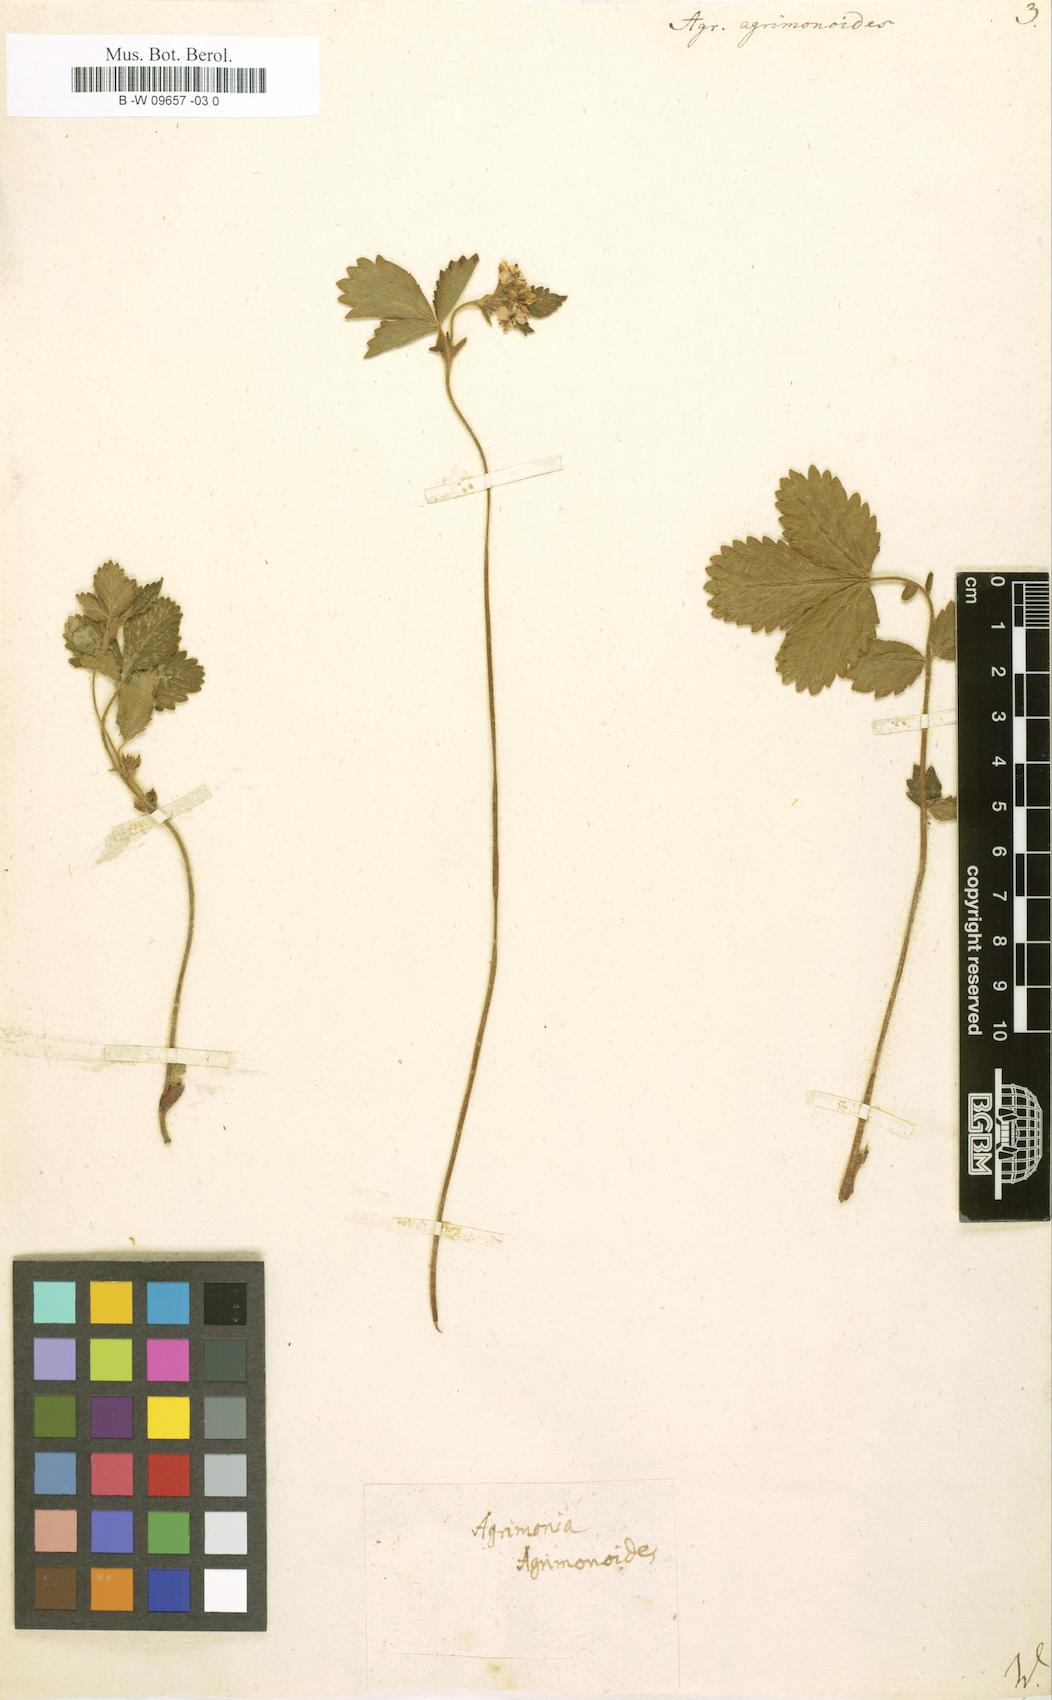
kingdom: Plantae
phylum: Tracheophyta
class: Magnoliopsida
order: Rosales
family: Rosaceae
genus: Aremonia
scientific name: Aremonia agrimonoides
